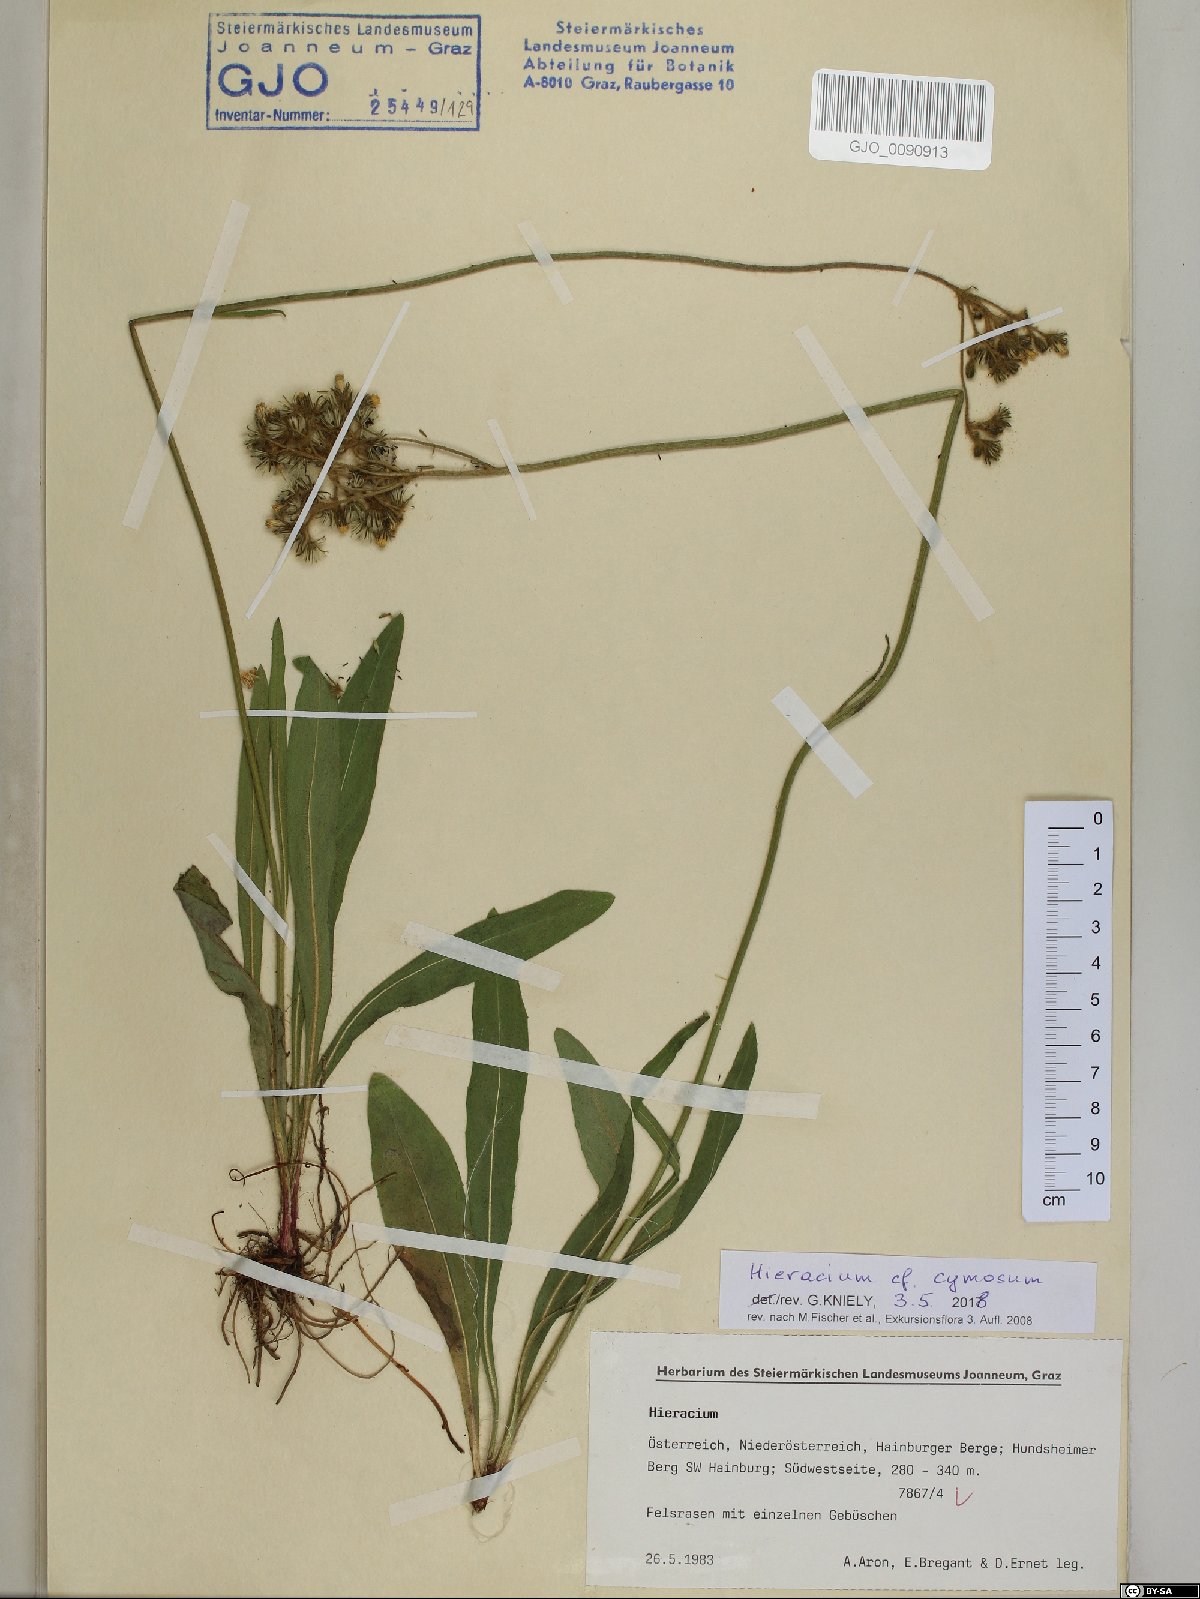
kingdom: Plantae
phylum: Tracheophyta
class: Magnoliopsida
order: Asterales
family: Asteraceae
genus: Pilosella
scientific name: Pilosella cymosa
